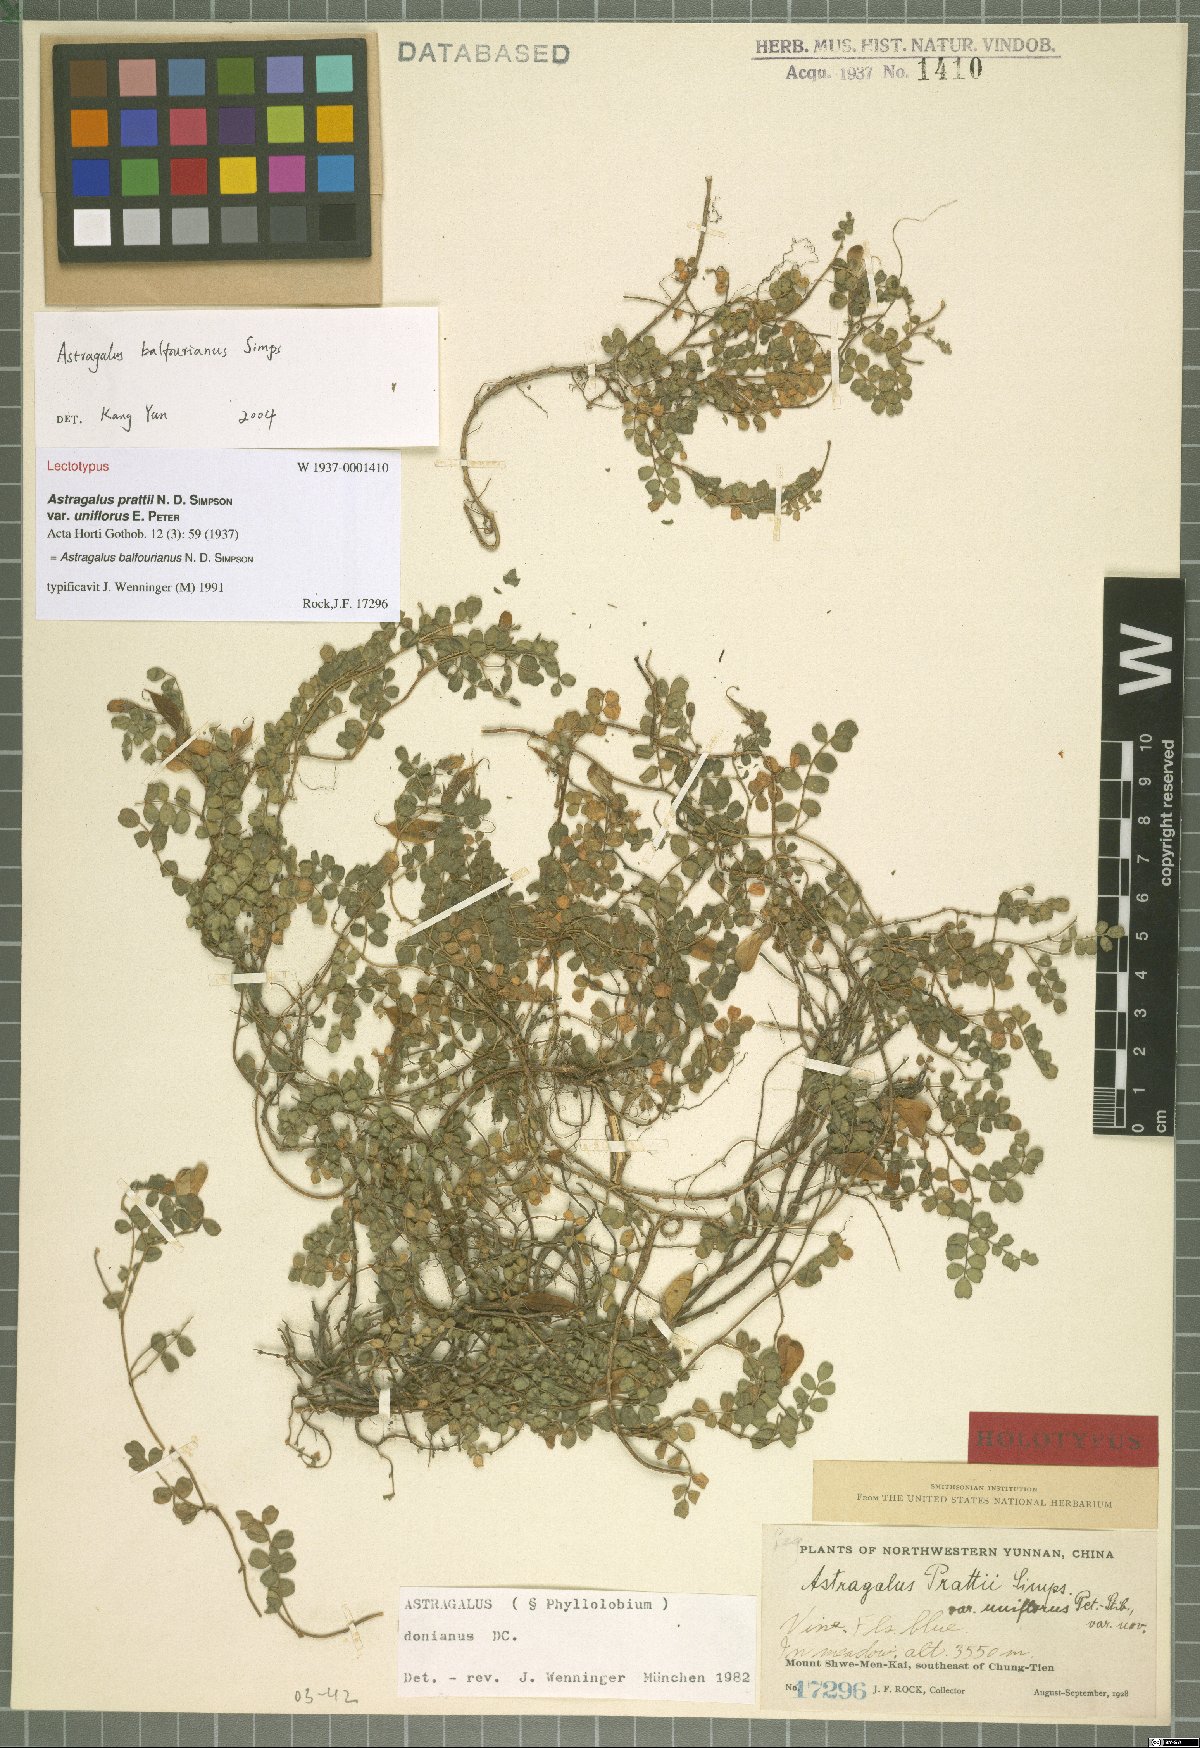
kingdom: Plantae
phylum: Tracheophyta
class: Magnoliopsida
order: Fabales
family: Fabaceae
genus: Phyllolobium
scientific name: Phyllolobium balfourianum
